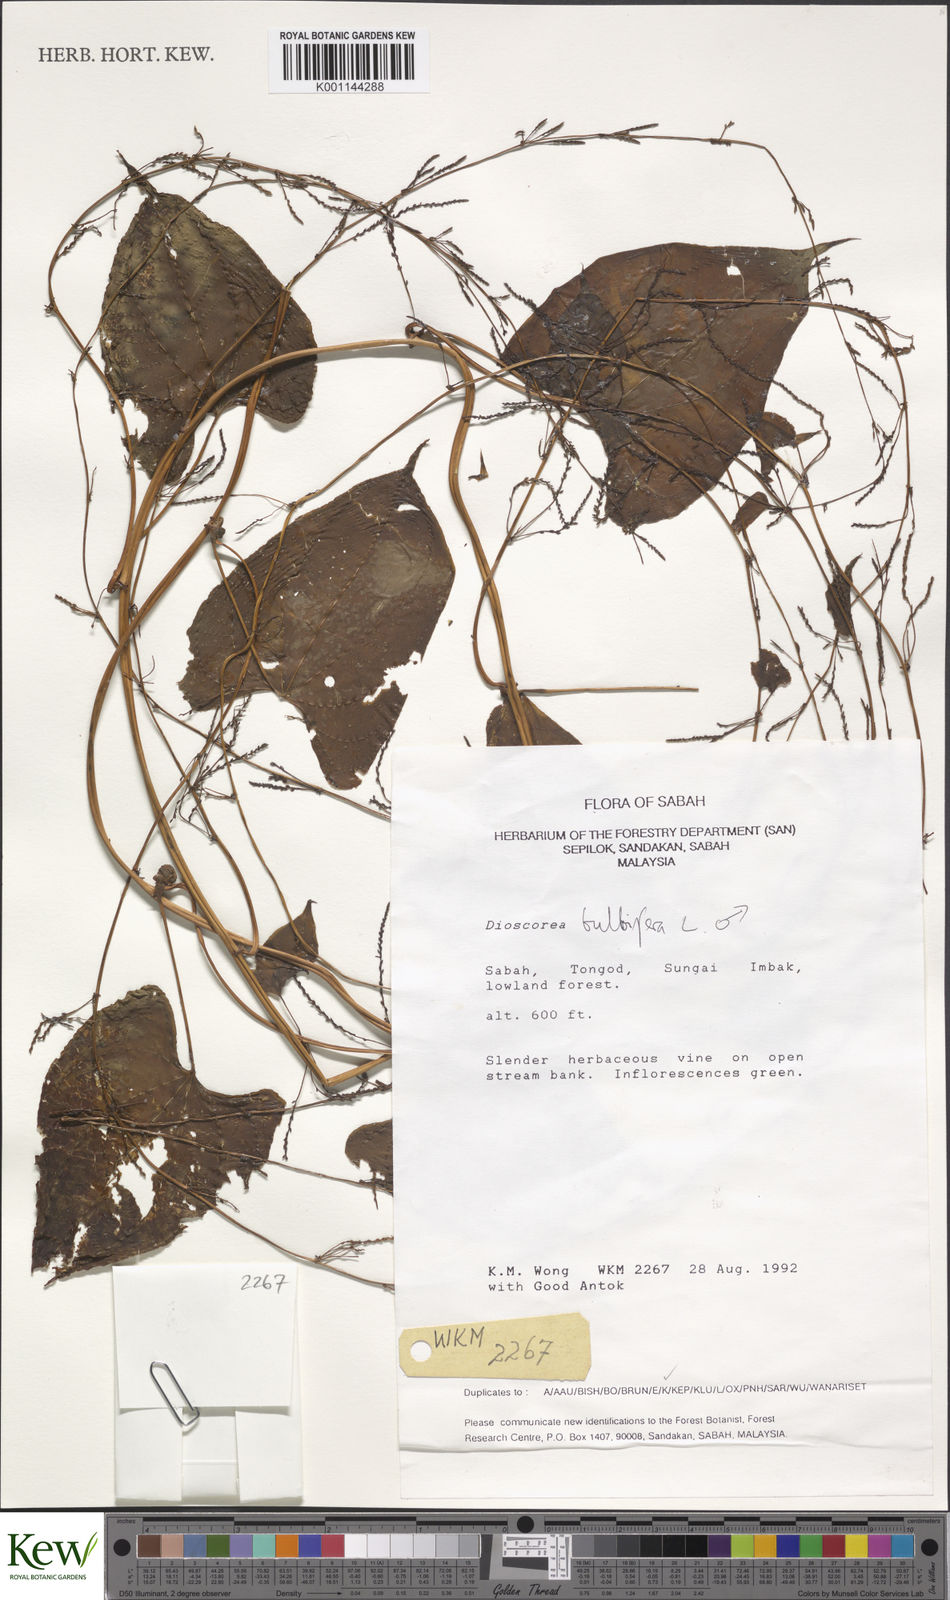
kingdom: Plantae
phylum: Tracheophyta
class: Liliopsida
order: Dioscoreales
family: Dioscoreaceae
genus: Dioscorea
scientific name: Dioscorea bulbifera
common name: Air yam
